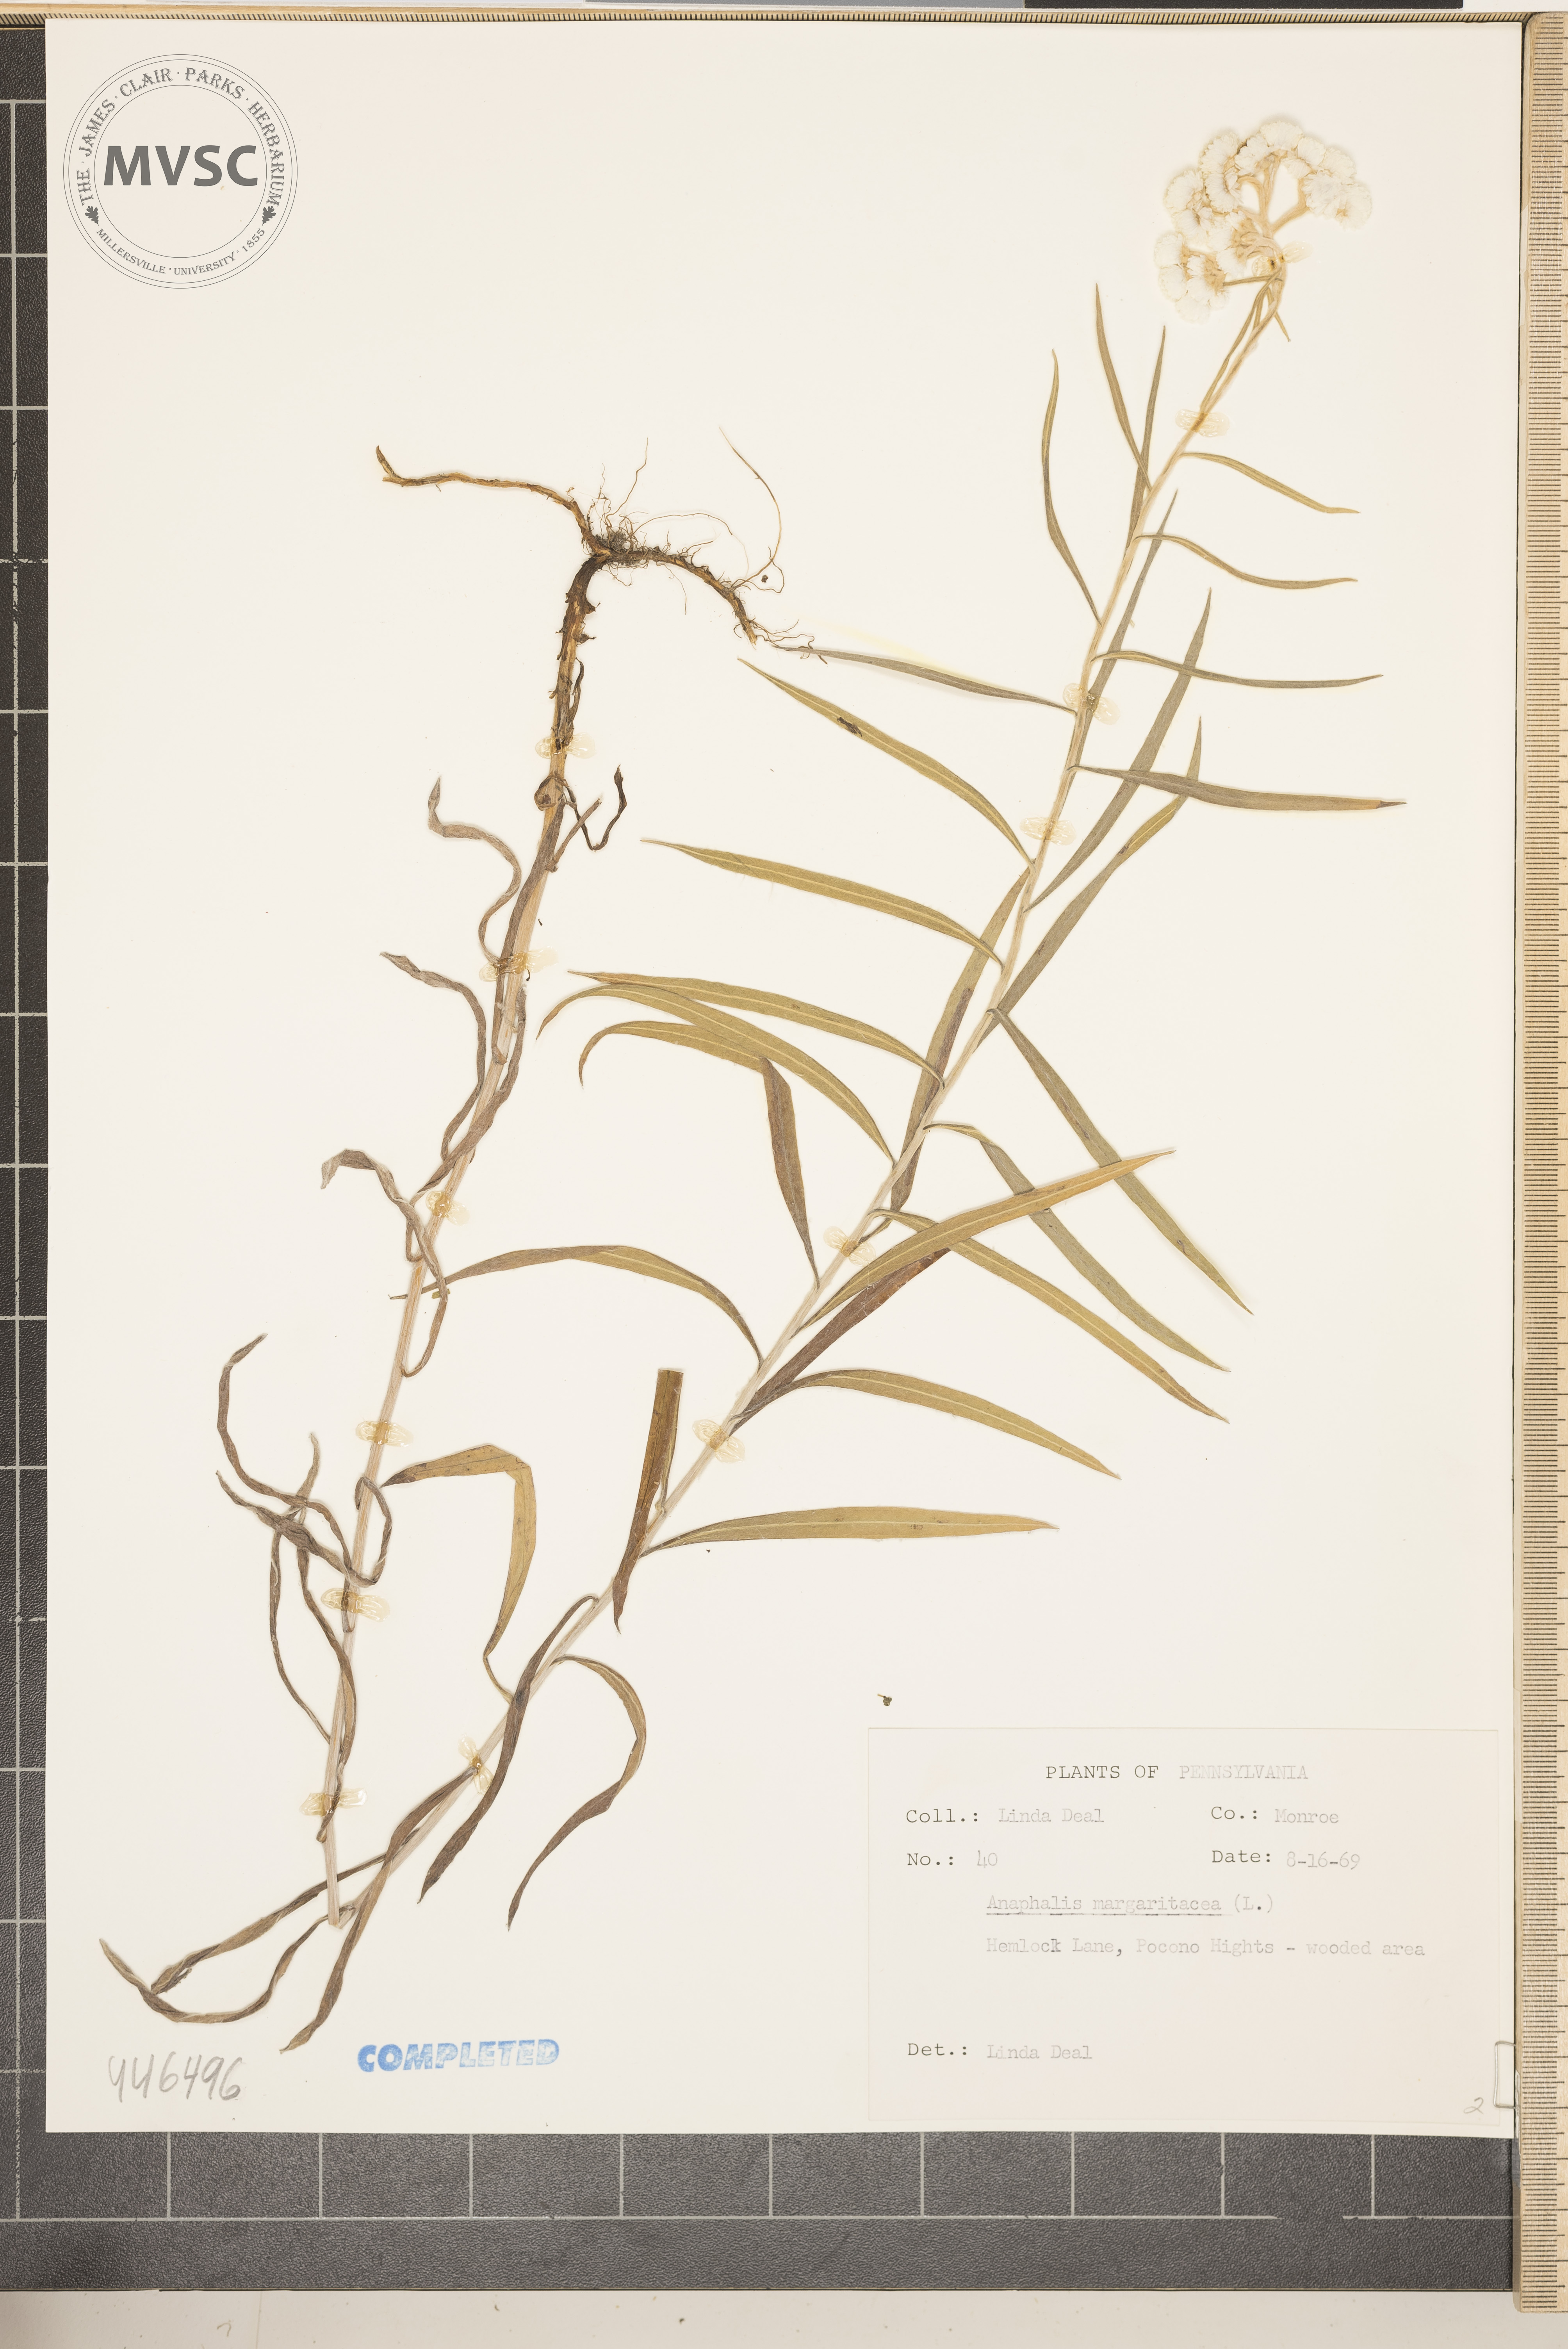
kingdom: Plantae
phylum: Tracheophyta
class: Magnoliopsida
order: Asterales
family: Asteraceae
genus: Anaphalis
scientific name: Anaphalis margaritacea
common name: Pearly everlasting
